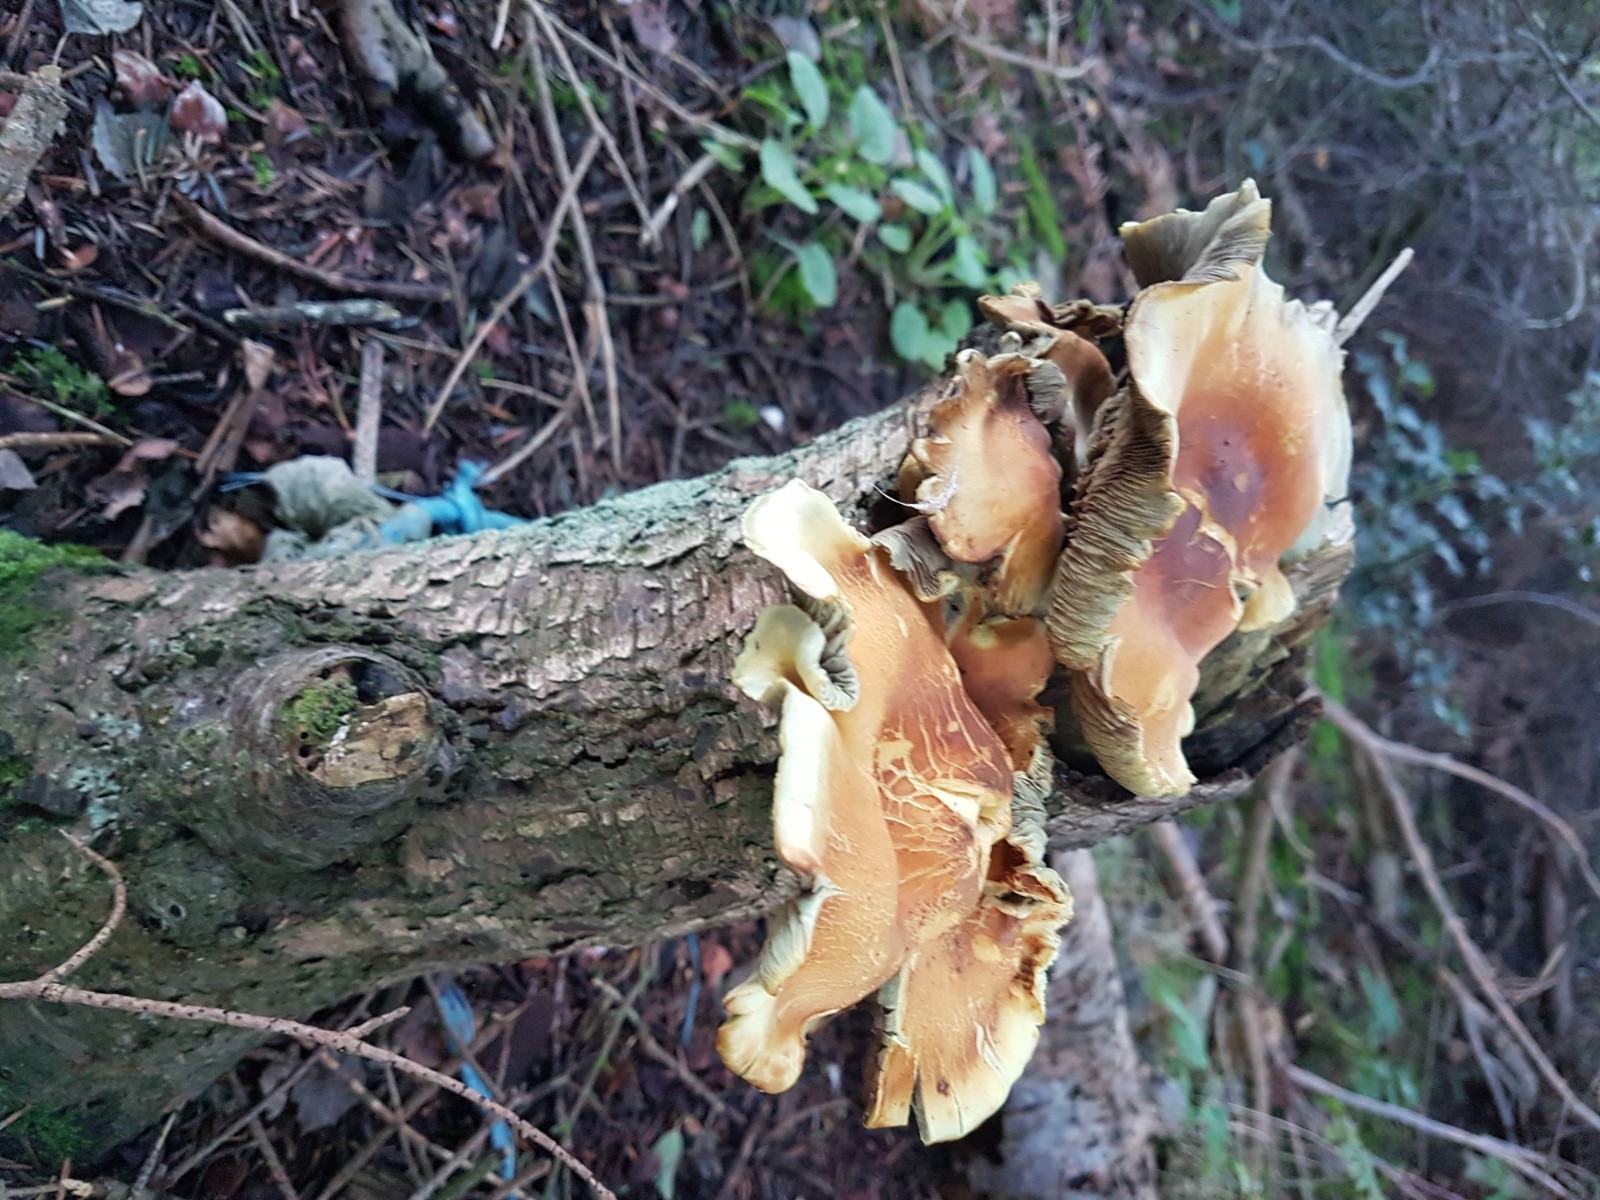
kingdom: Fungi
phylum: Basidiomycota
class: Agaricomycetes
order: Agaricales
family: Strophariaceae
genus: Hypholoma
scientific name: Hypholoma fasciculare
